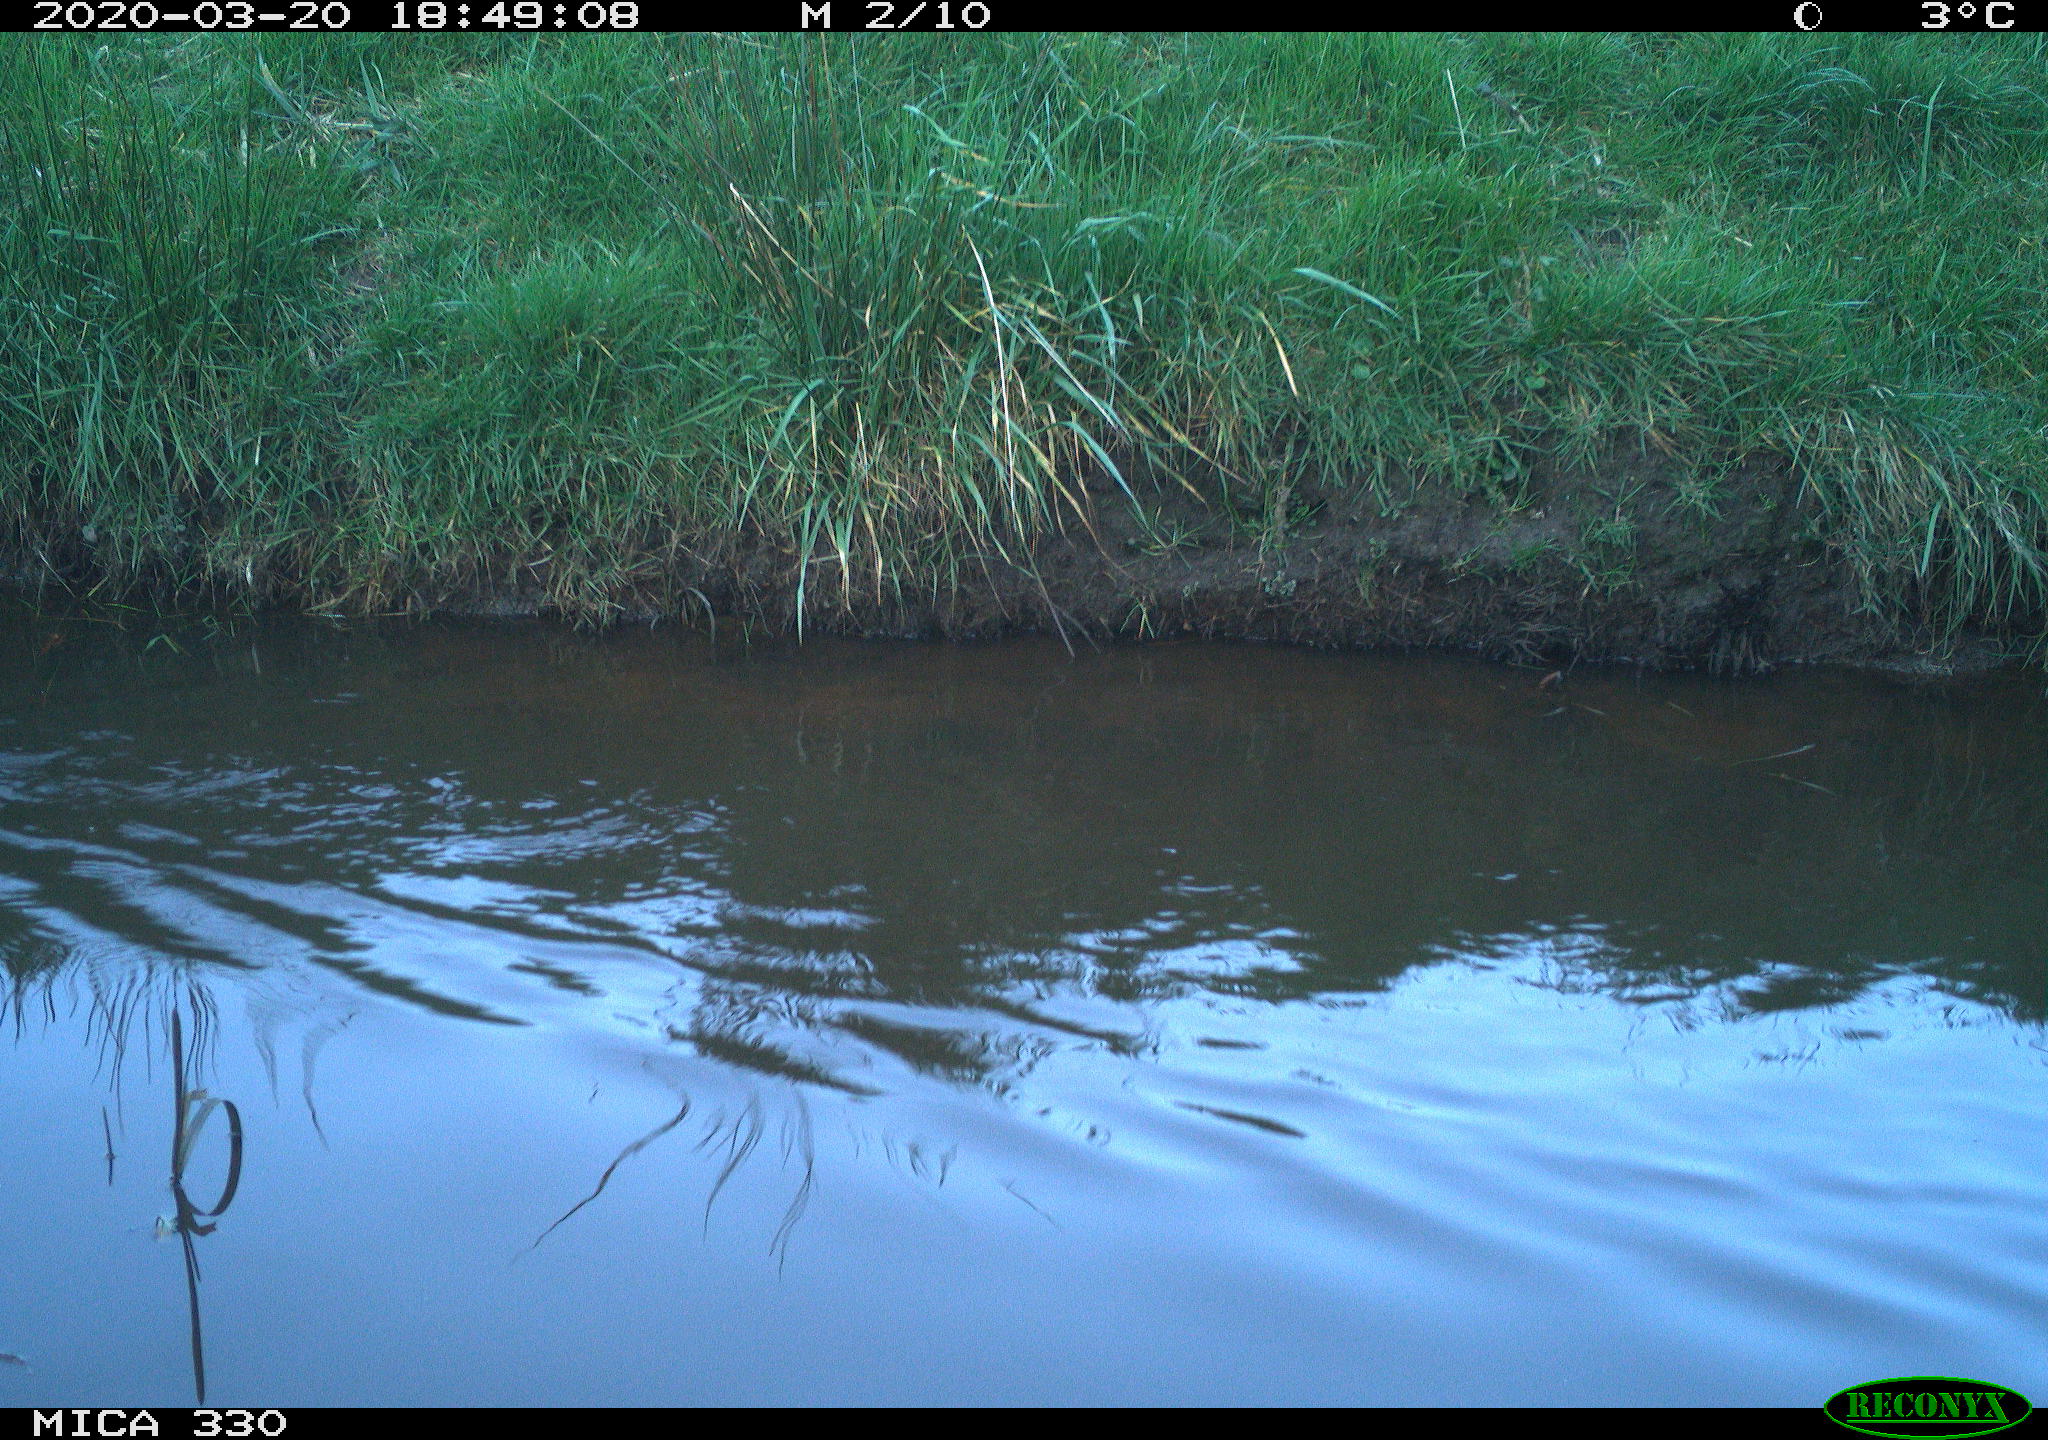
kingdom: Animalia
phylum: Chordata
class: Aves
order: Anseriformes
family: Anatidae
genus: Anas
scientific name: Anas platyrhynchos
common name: Mallard
